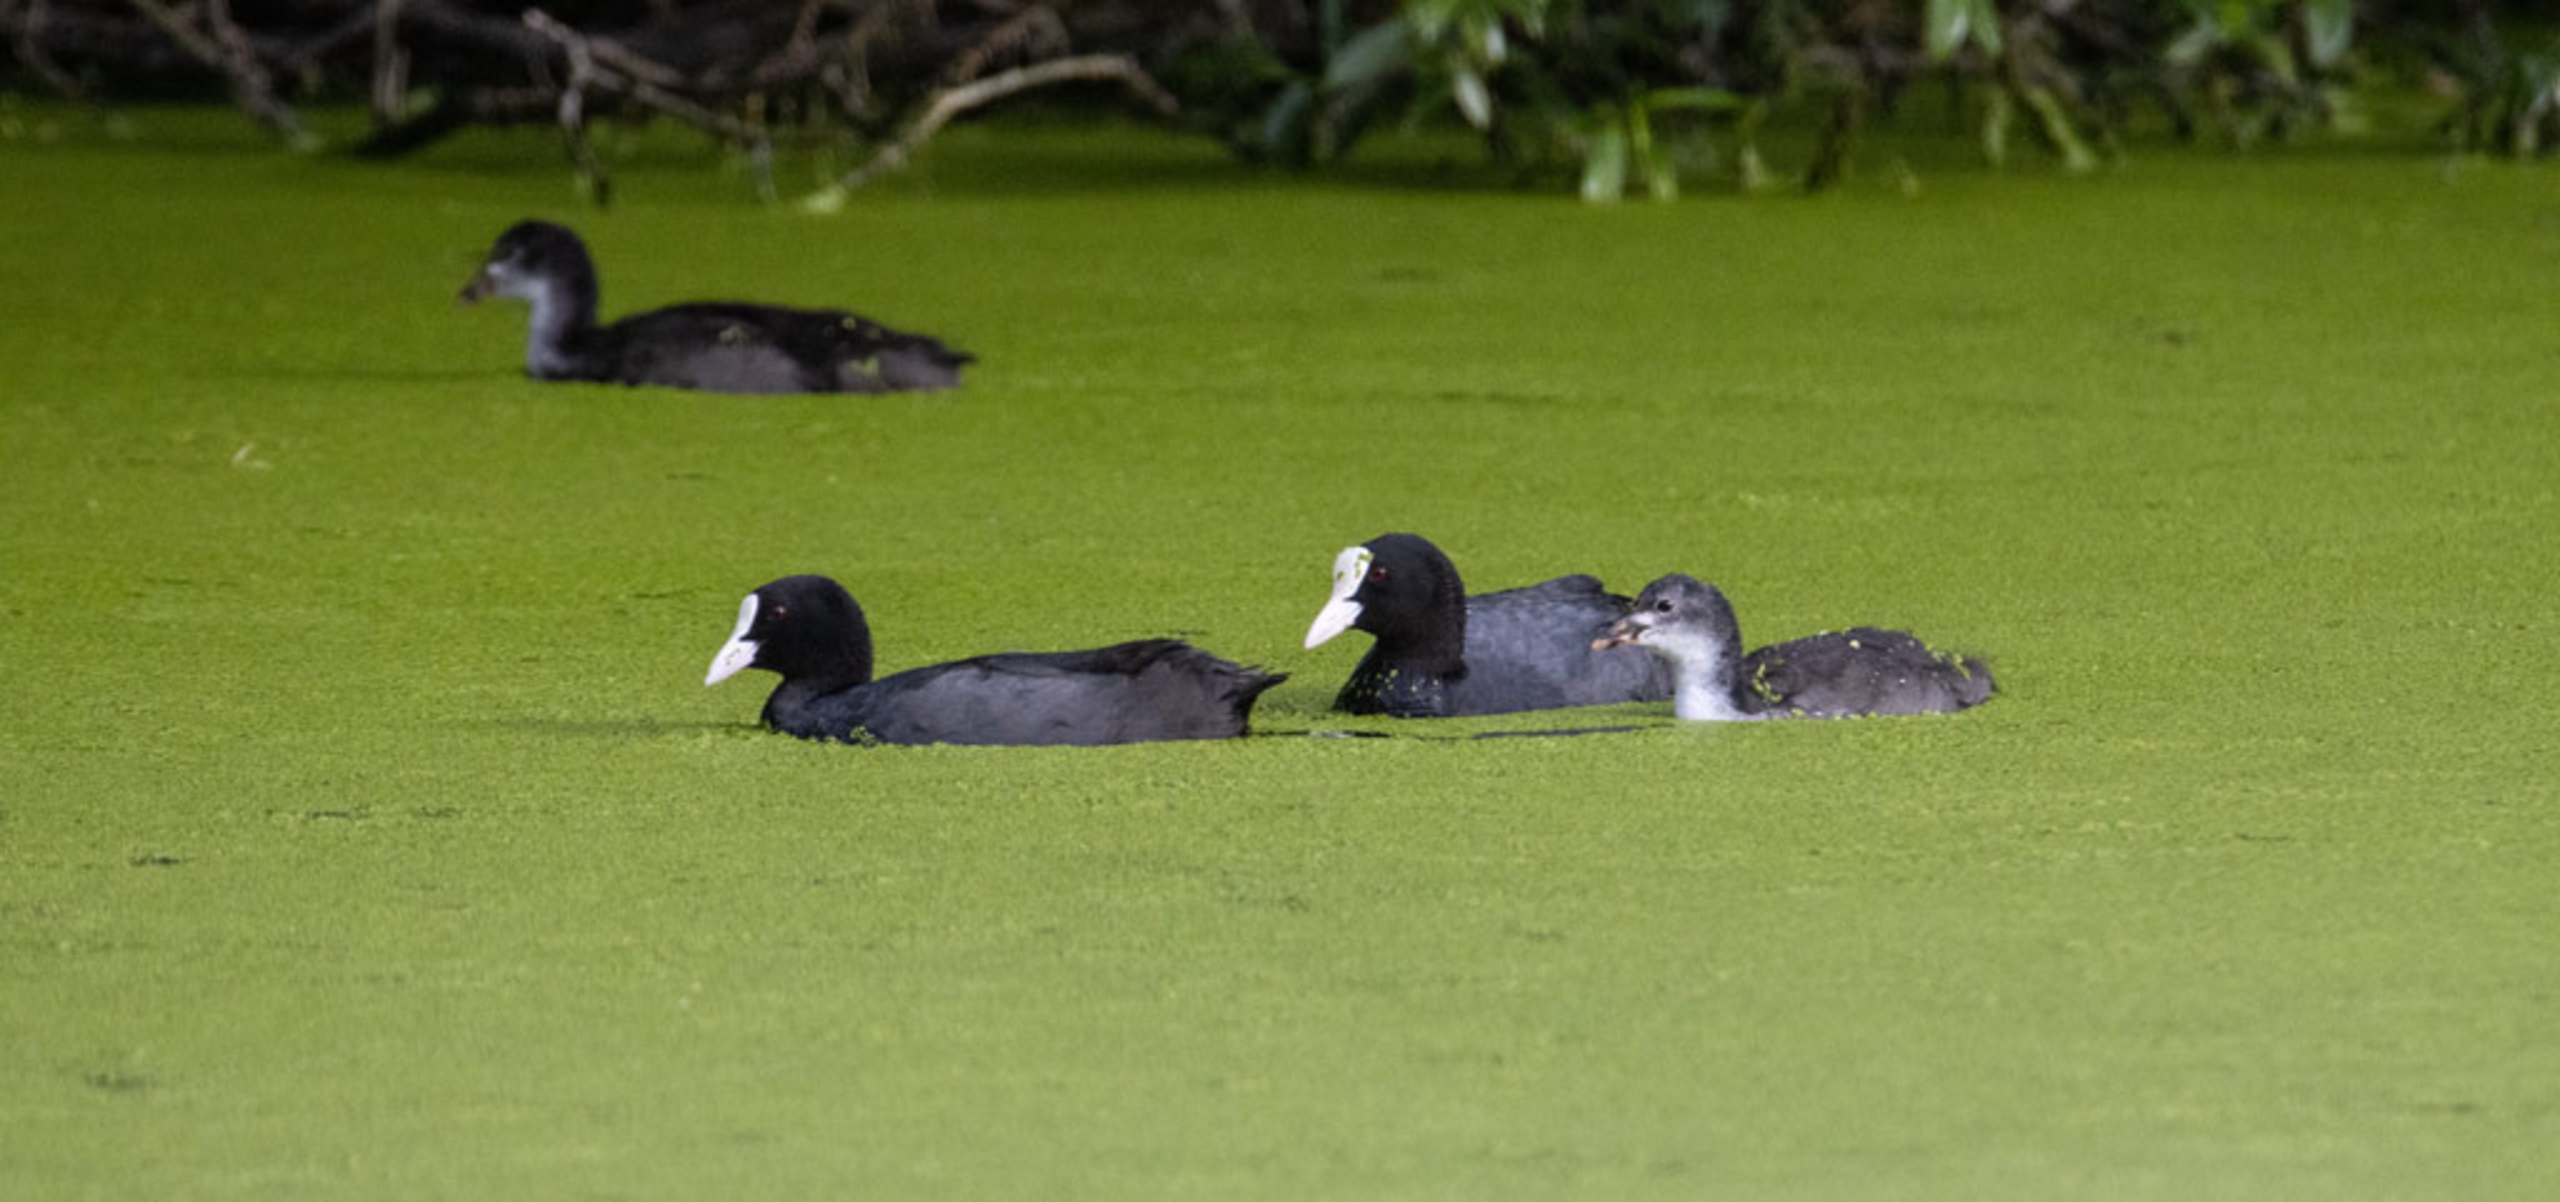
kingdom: Animalia
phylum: Chordata
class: Aves
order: Gruiformes
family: Rallidae
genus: Fulica
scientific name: Fulica atra
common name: Blishøne
